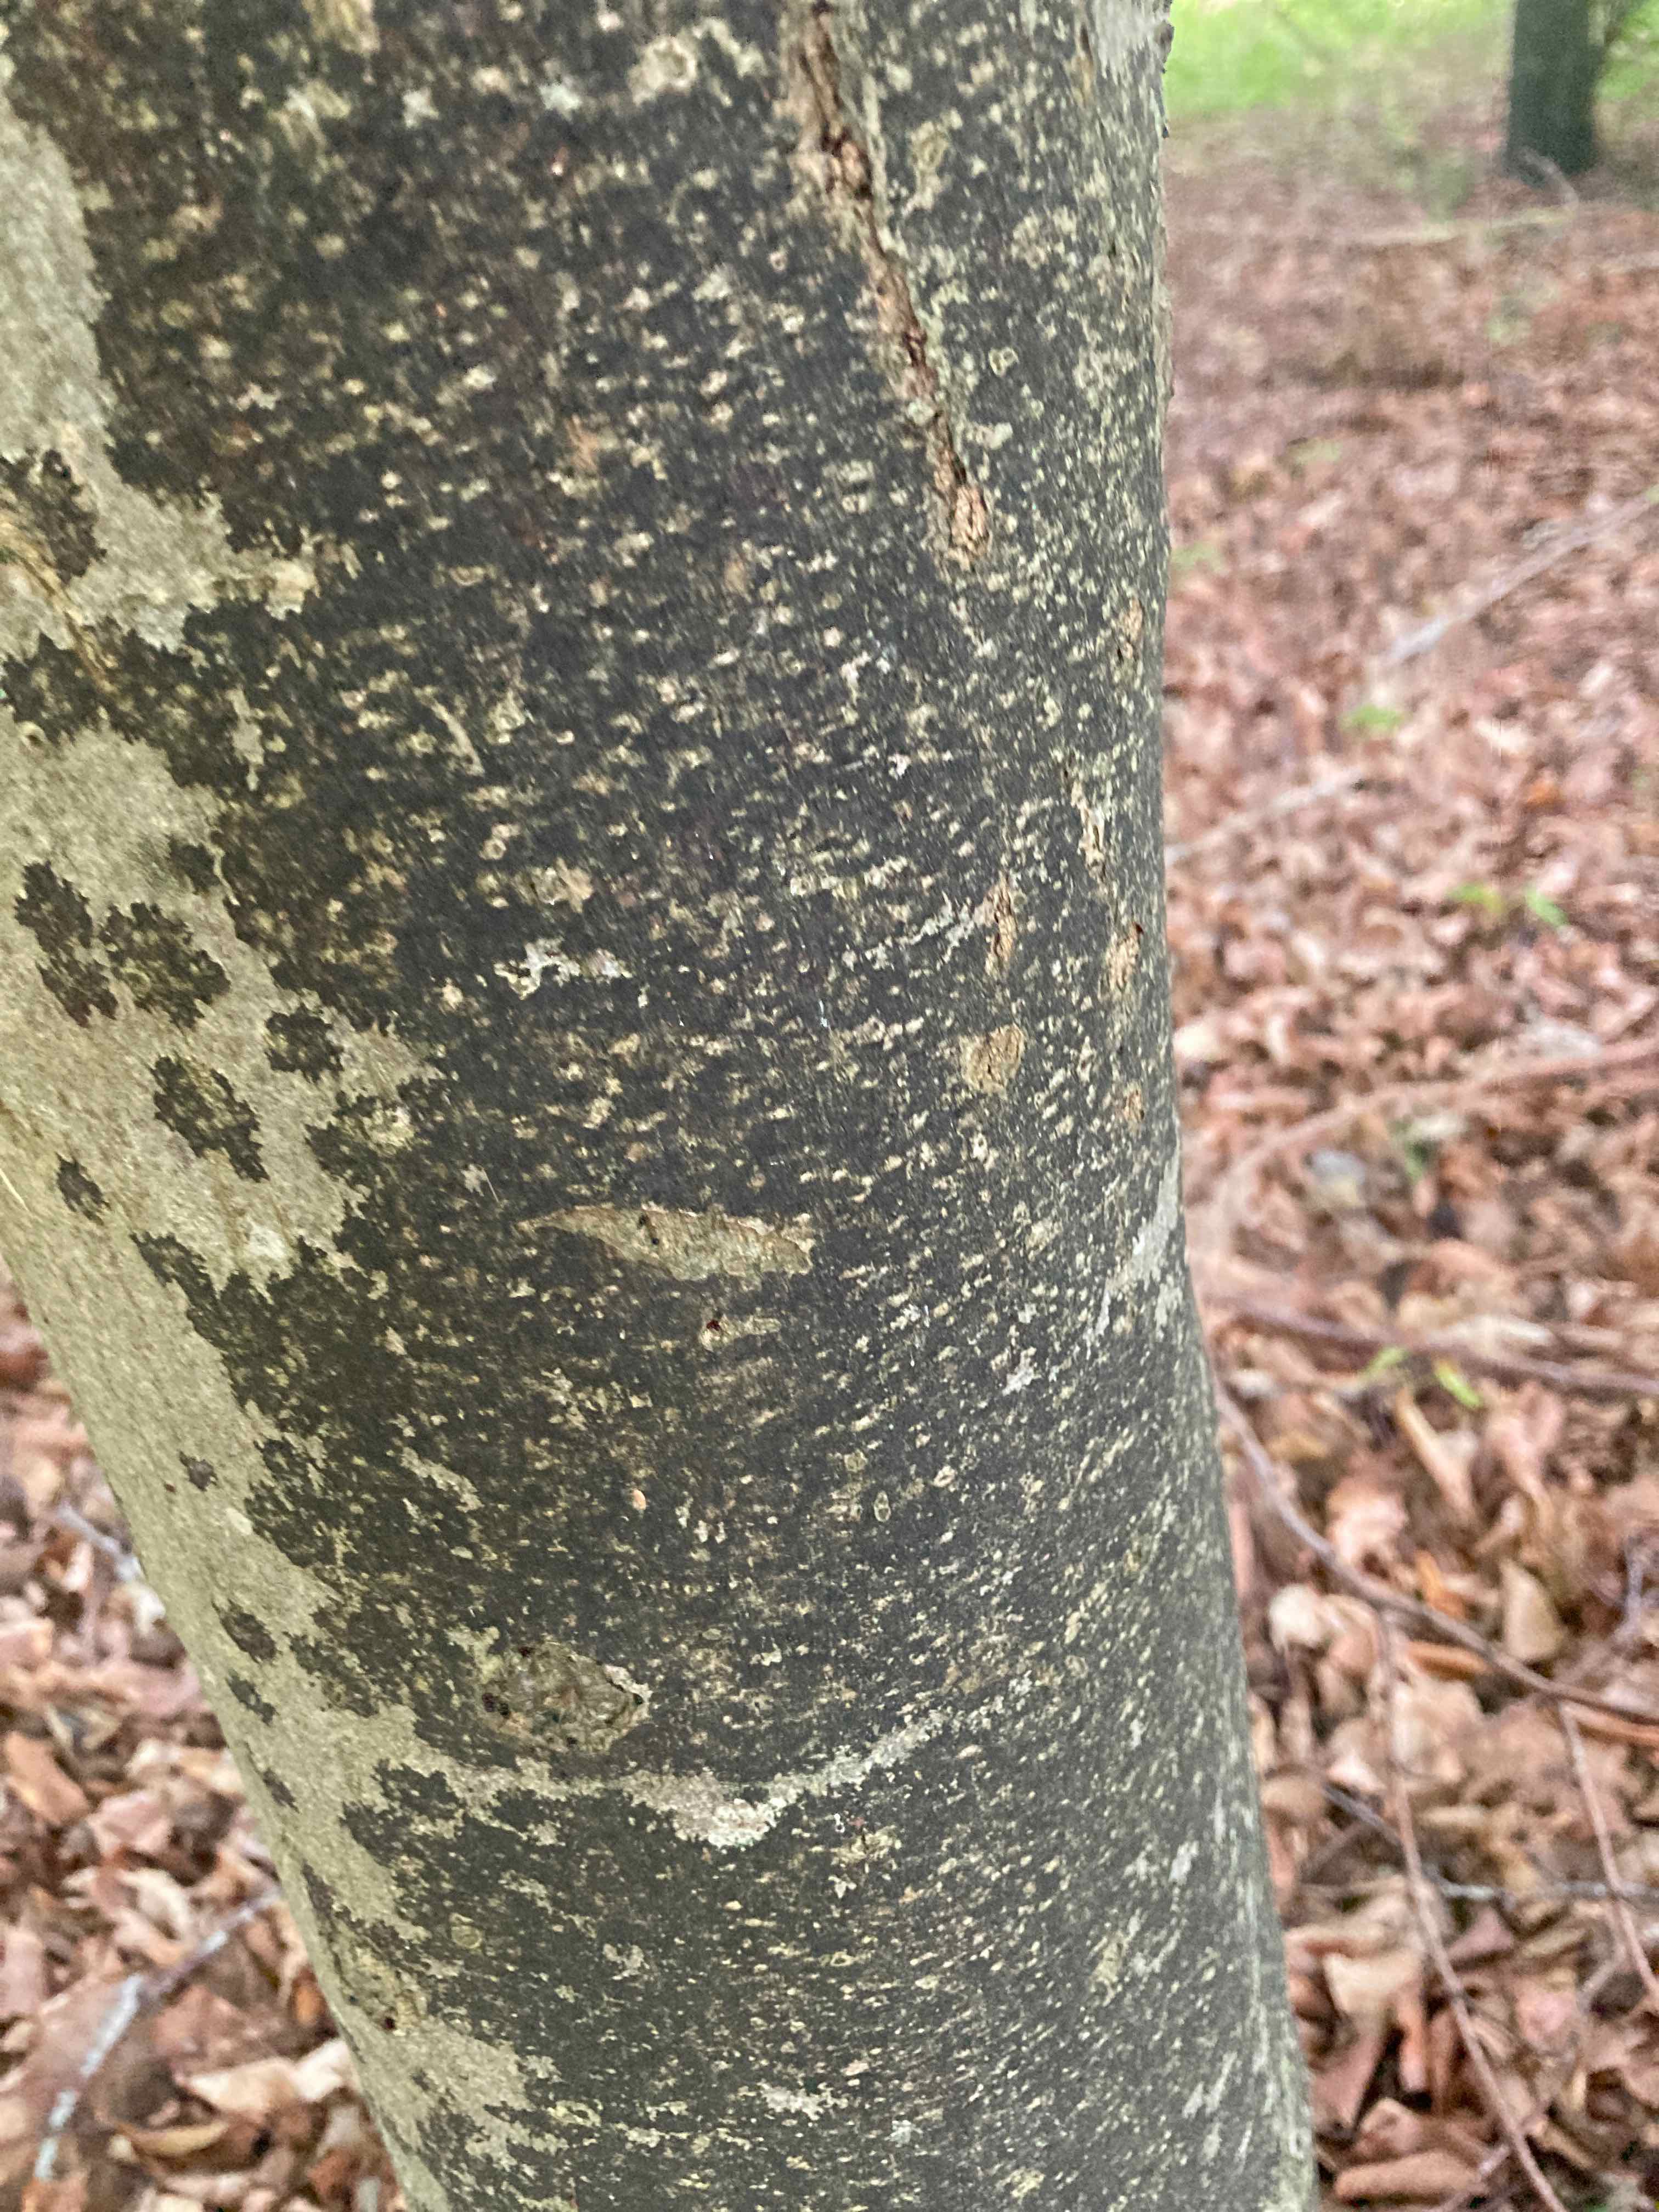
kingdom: Fungi
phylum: Ascomycota
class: Leotiomycetes
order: Rhytismatales
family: Ascodichaenaceae
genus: Ascodichaena
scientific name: Ascodichaena rugosa
